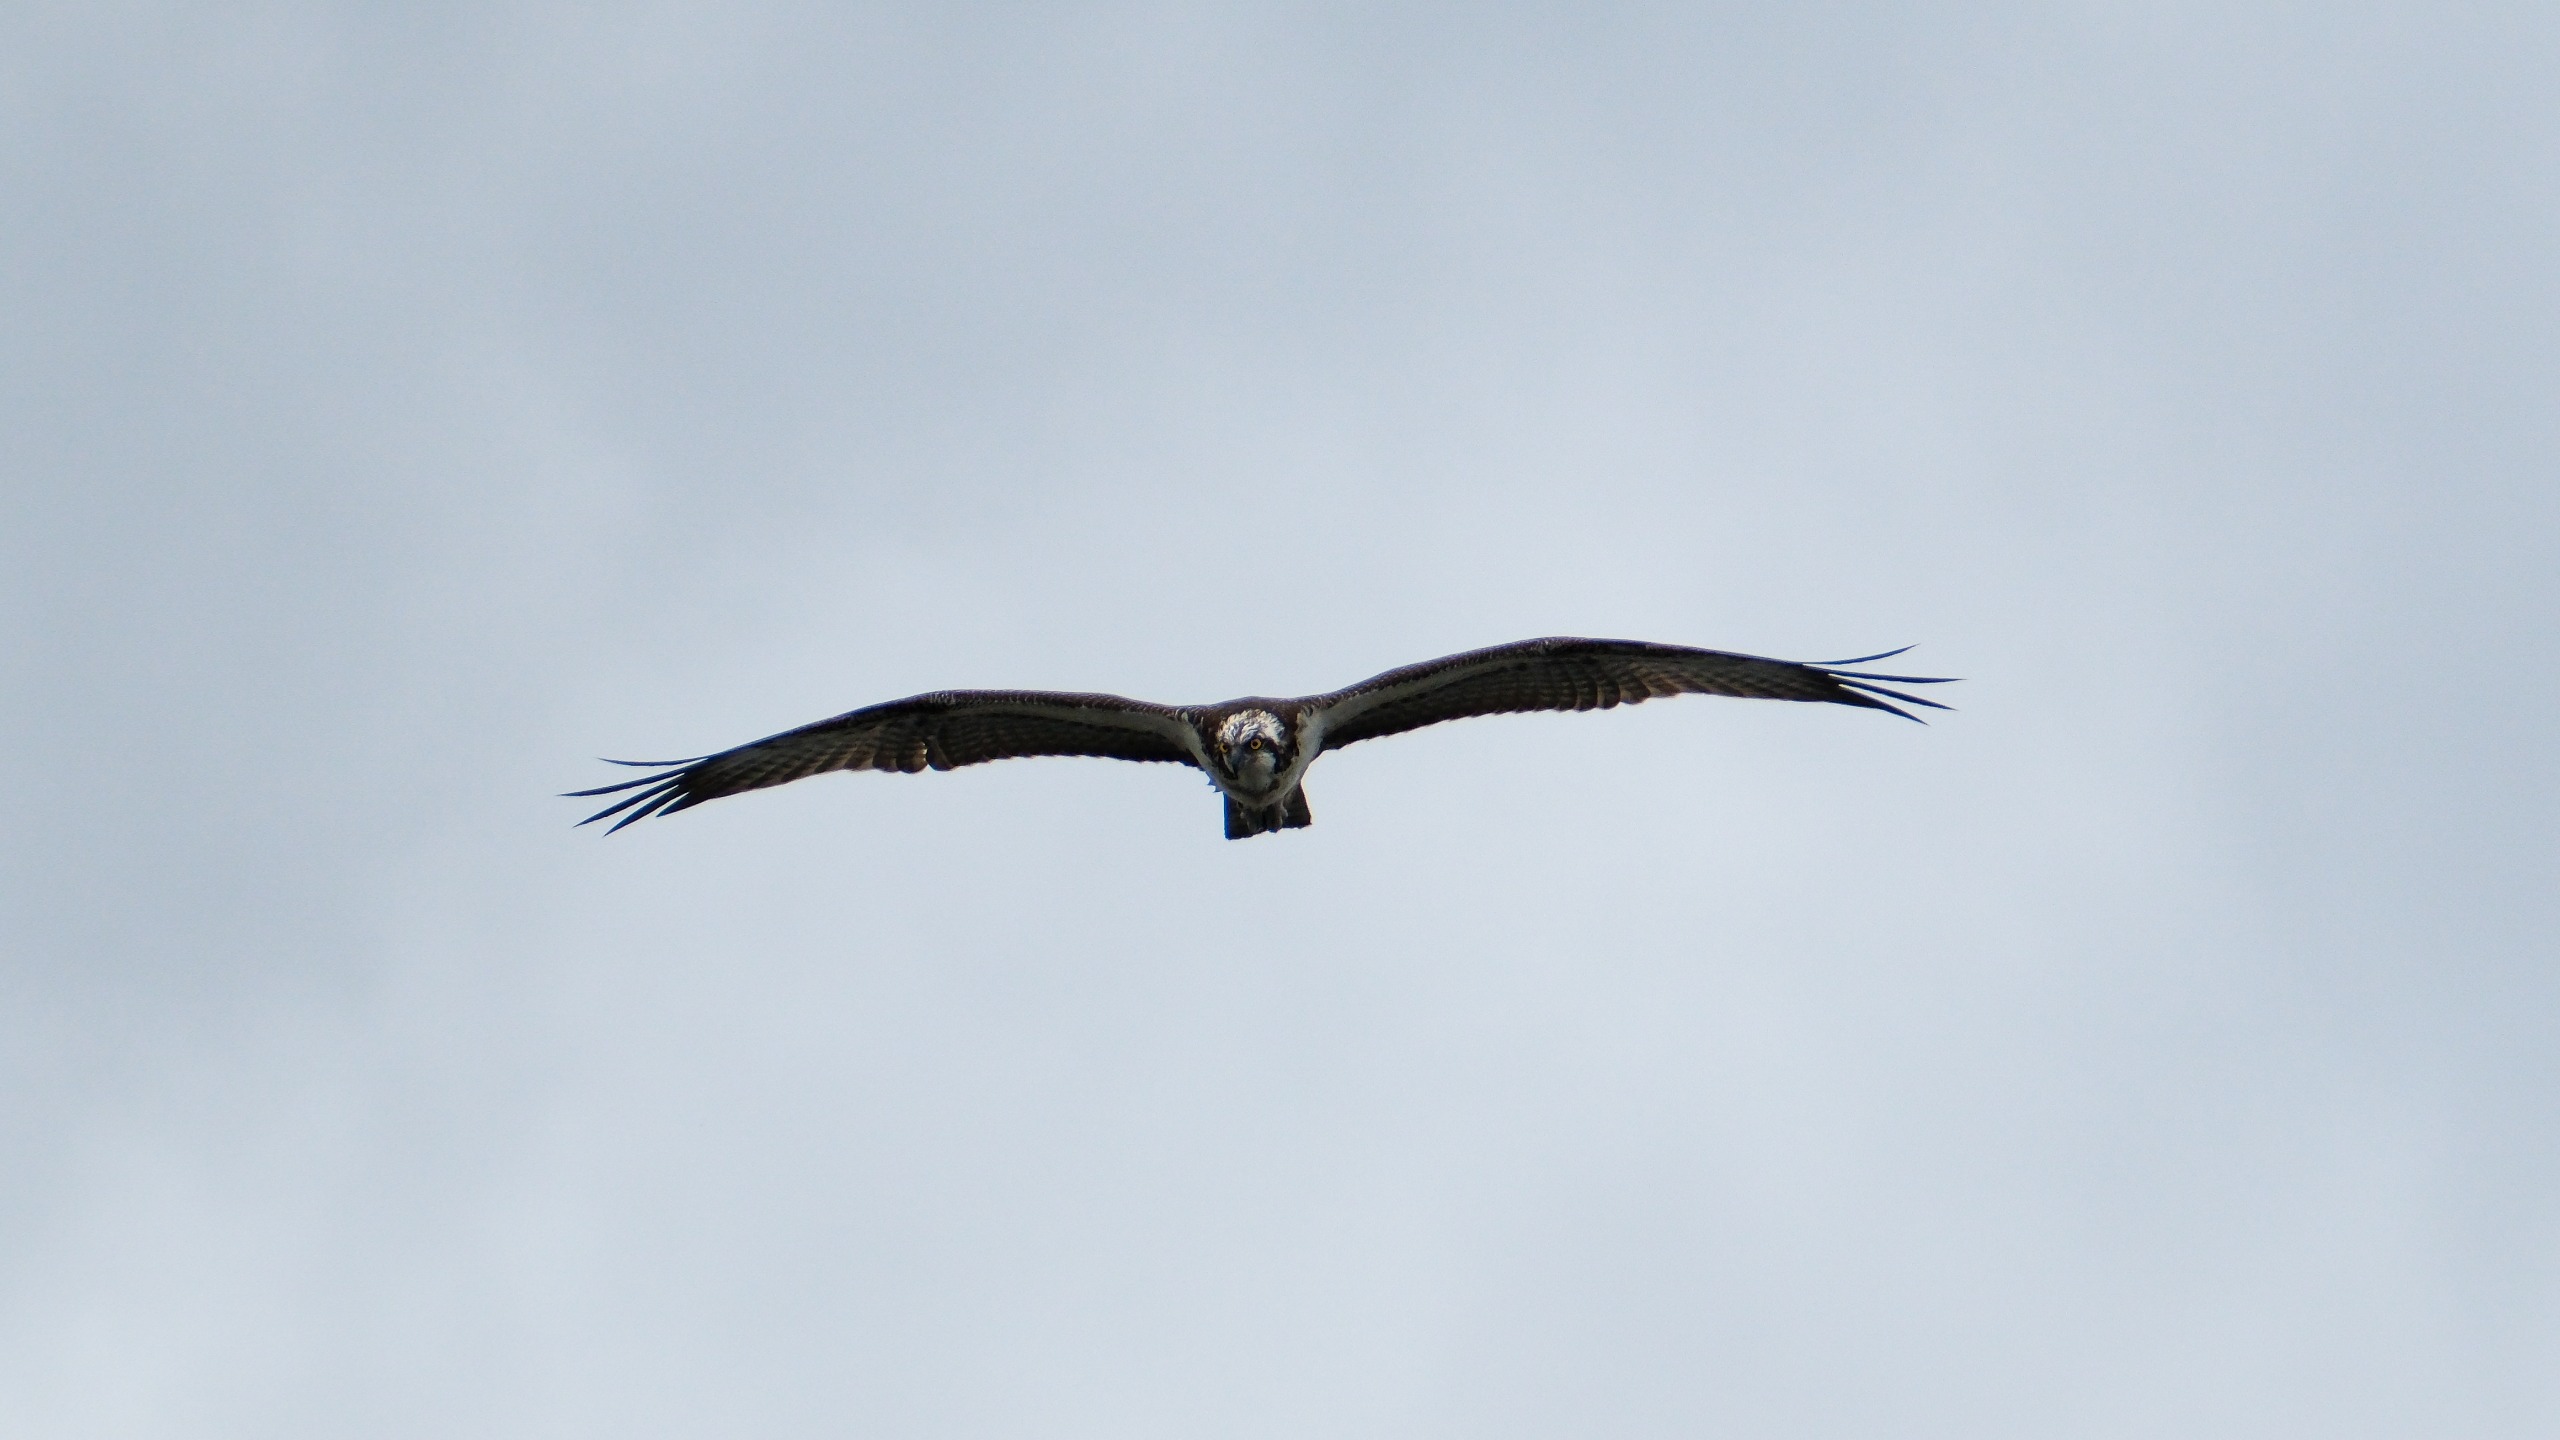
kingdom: Animalia
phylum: Chordata
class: Aves
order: Accipitriformes
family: Pandionidae
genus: Pandion
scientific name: Pandion haliaetus
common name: Fiskeørn
